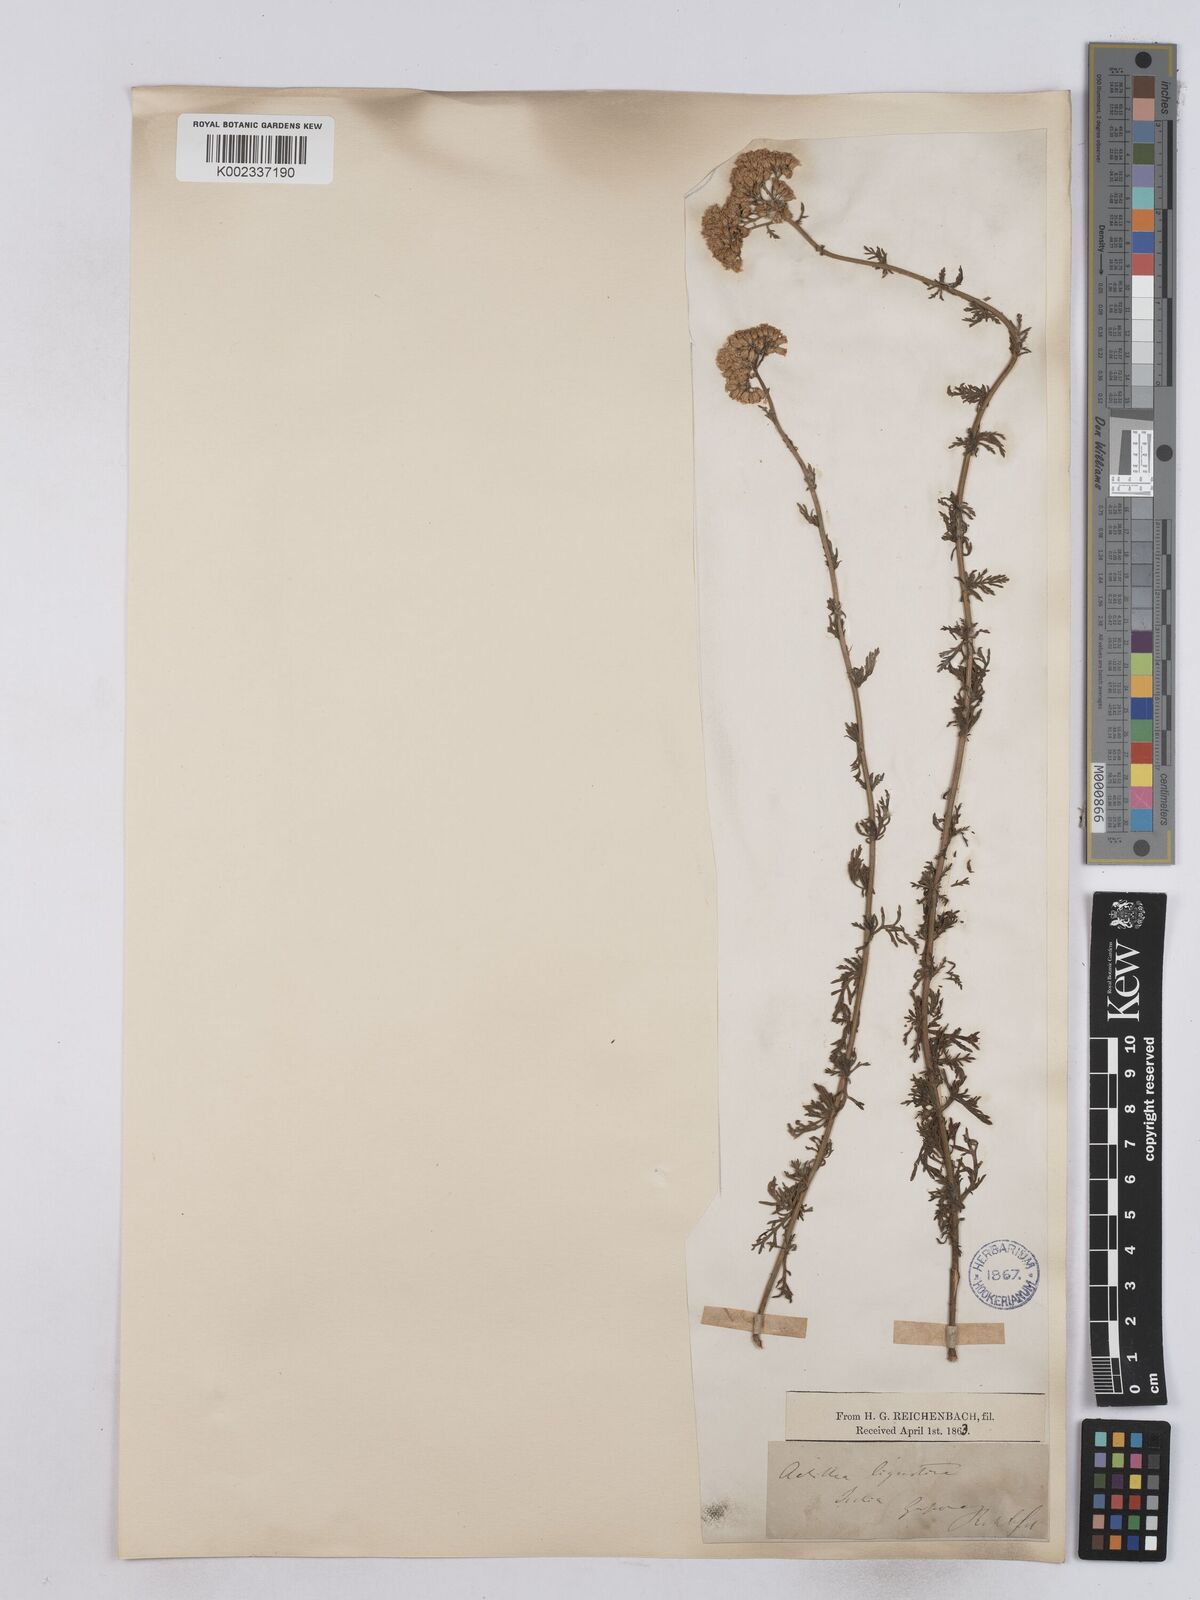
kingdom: Plantae
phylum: Tracheophyta
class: Magnoliopsida
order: Asterales
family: Asteraceae
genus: Achillea
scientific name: Achillea ligustica
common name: Southern yarrow
